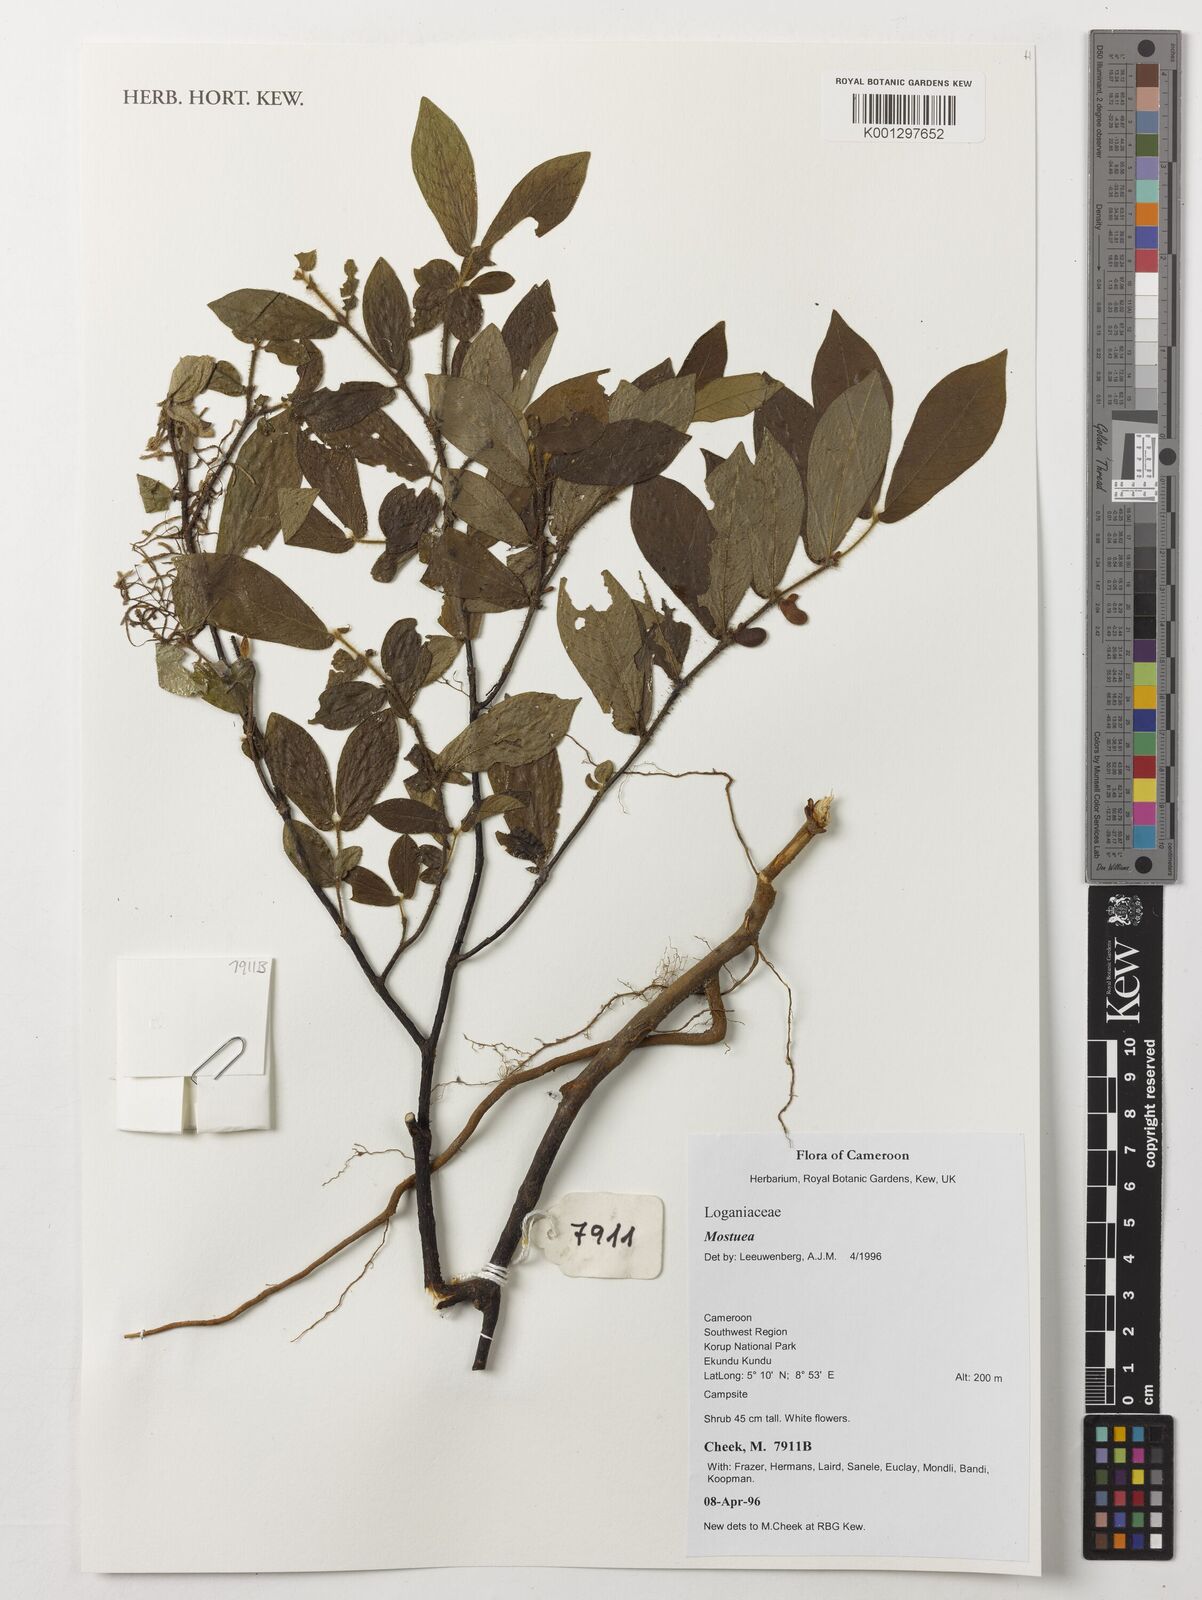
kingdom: Plantae
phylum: Tracheophyta
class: Magnoliopsida
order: Gentianales
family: Gelsemiaceae
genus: Mostuea
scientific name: Mostuea
